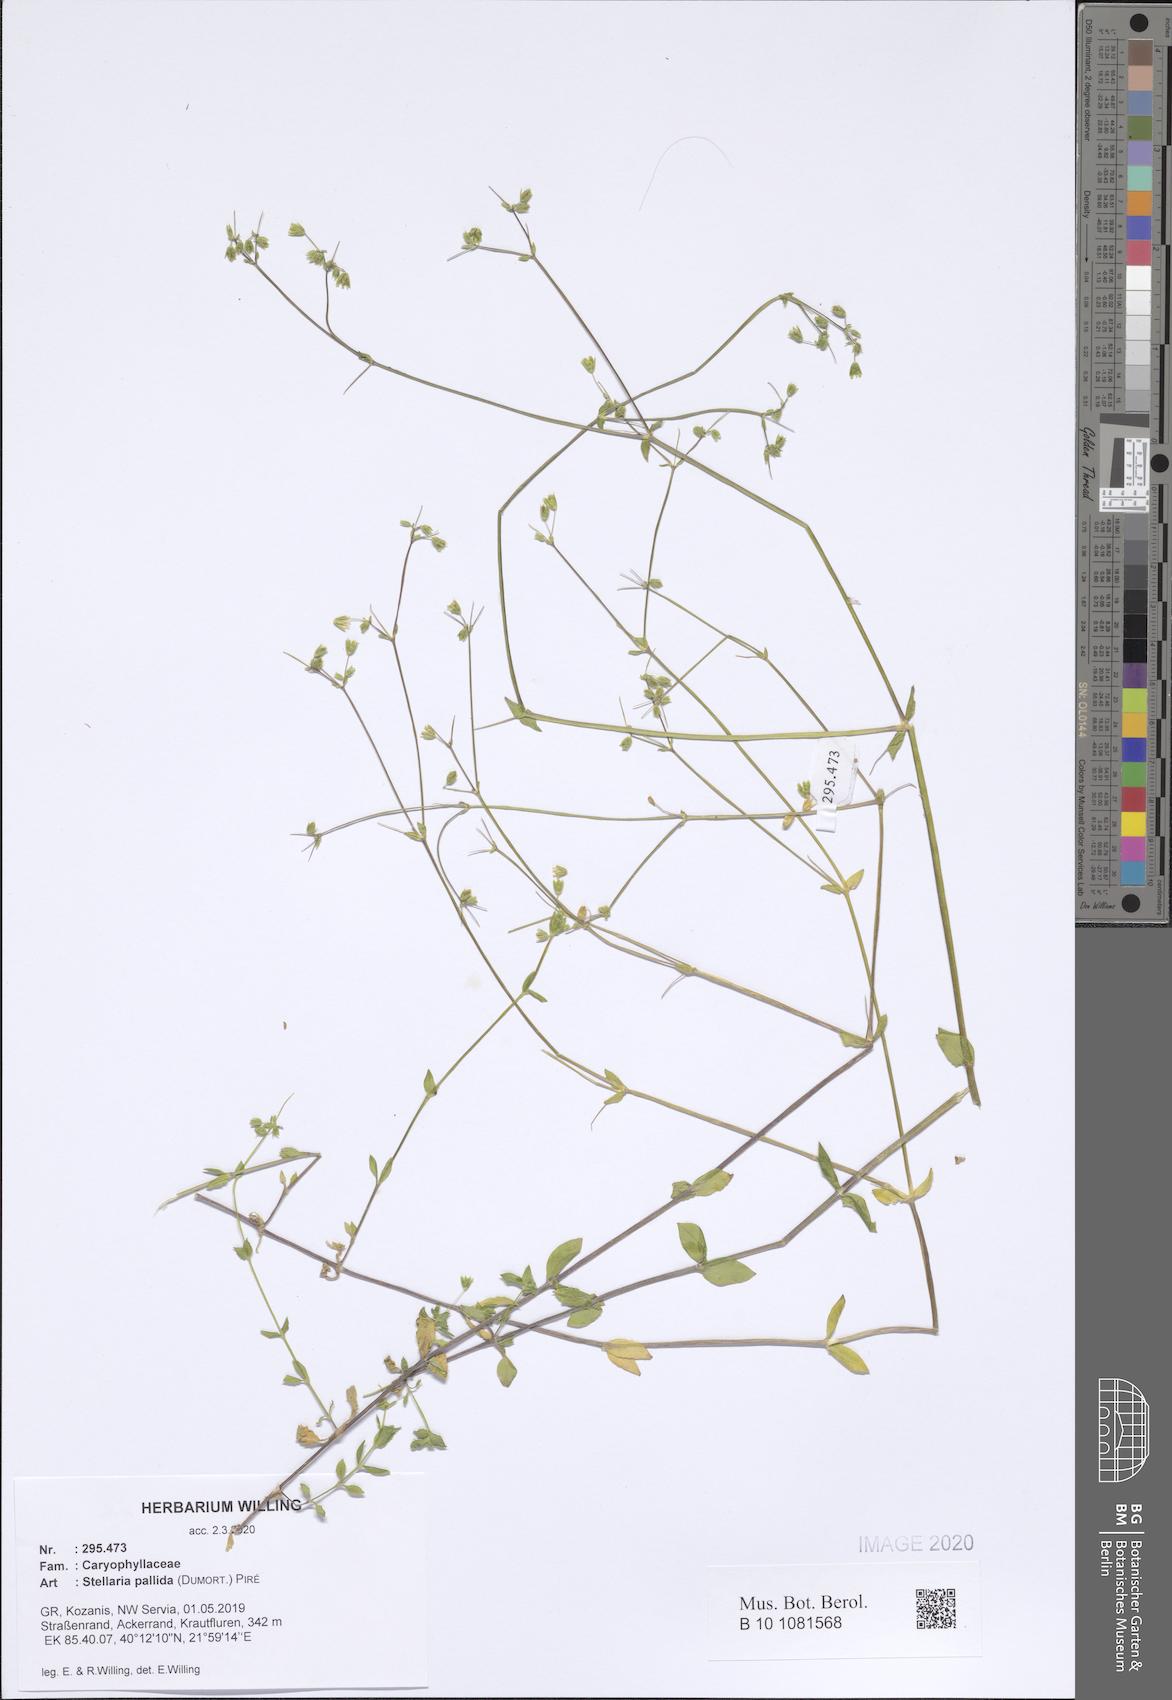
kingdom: Plantae
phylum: Tracheophyta
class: Magnoliopsida
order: Caryophyllales
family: Caryophyllaceae
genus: Stellaria
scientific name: Stellaria apetala
